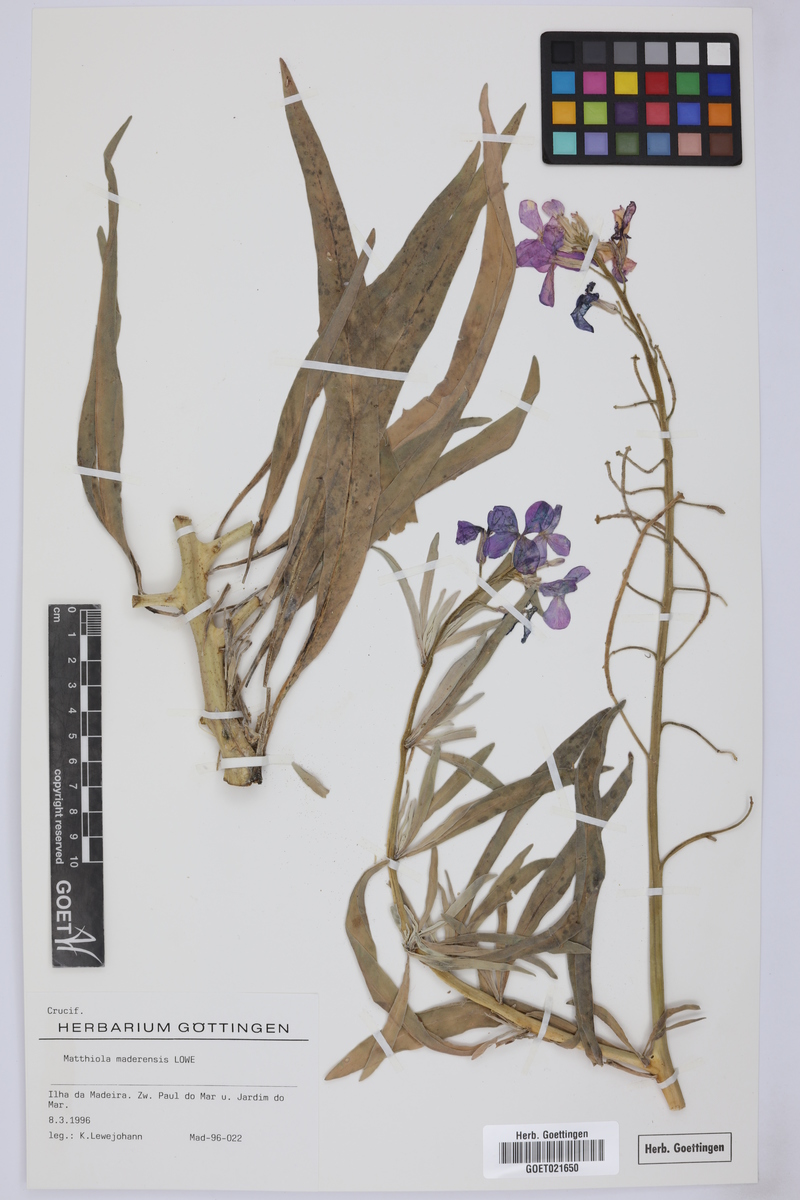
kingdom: Plantae
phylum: Tracheophyta
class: Magnoliopsida
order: Brassicales
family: Brassicaceae
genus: Matthiola
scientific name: Matthiola maderensis
